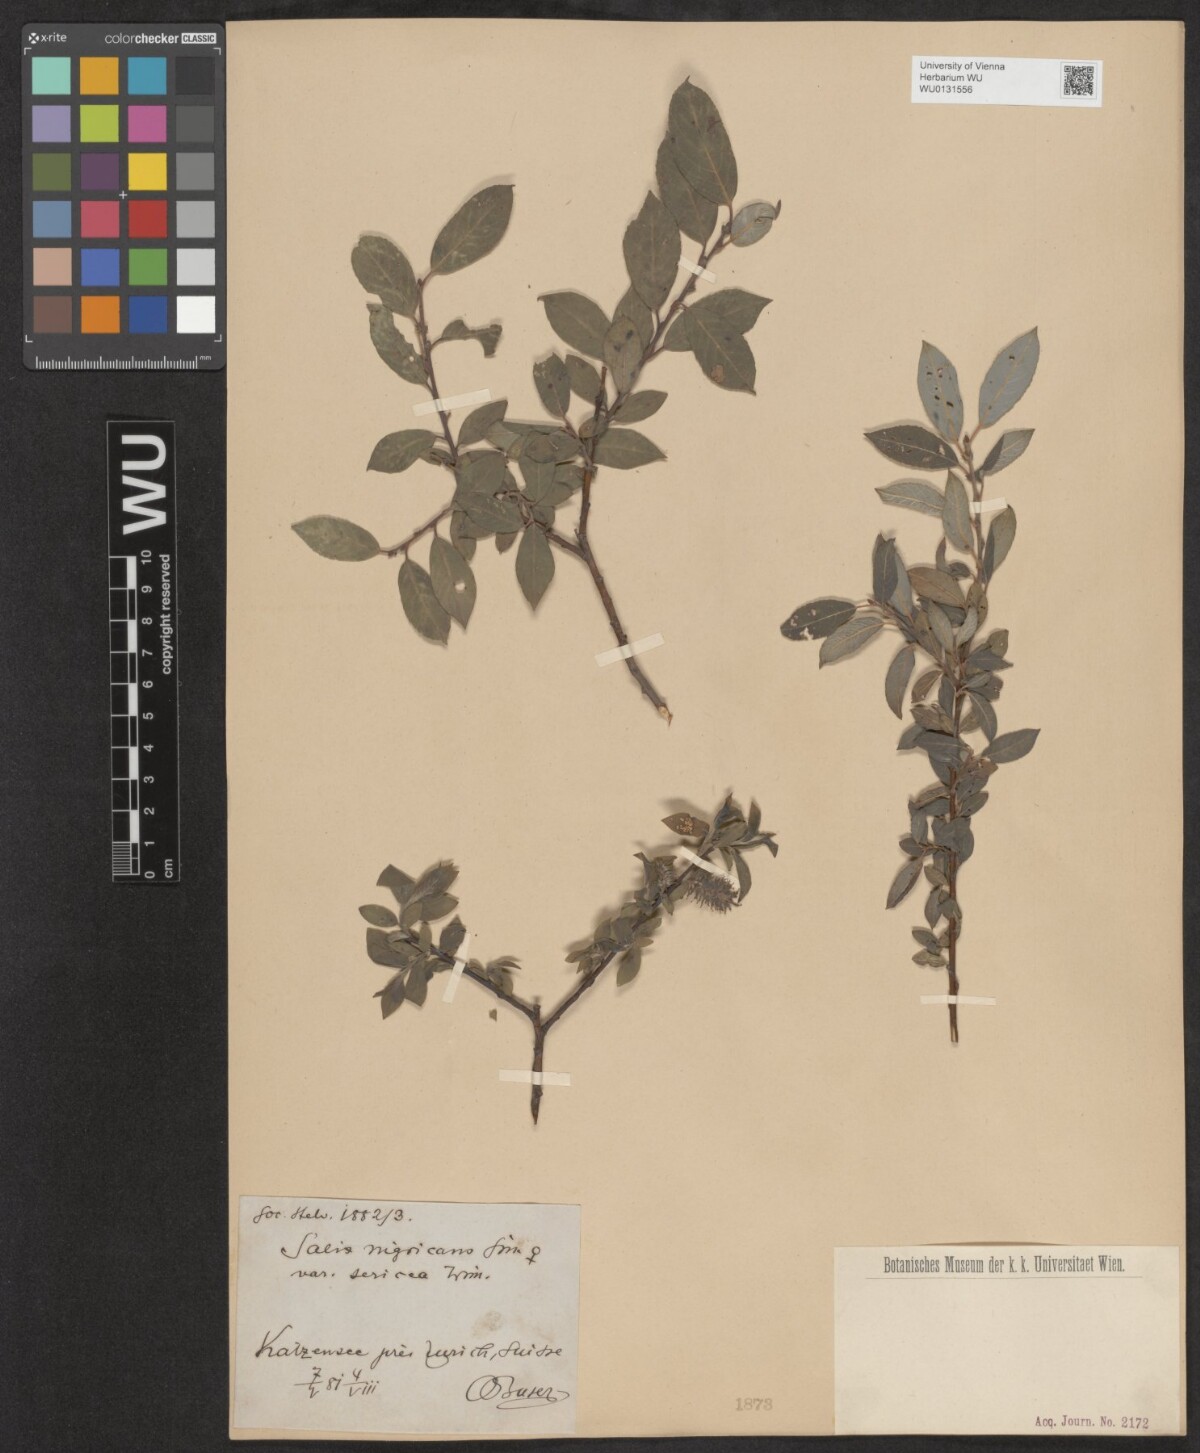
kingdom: Plantae
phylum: Tracheophyta
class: Magnoliopsida
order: Malpighiales
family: Salicaceae
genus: Salix
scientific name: Salix myrsinifolia
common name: Dark-leaved willow
